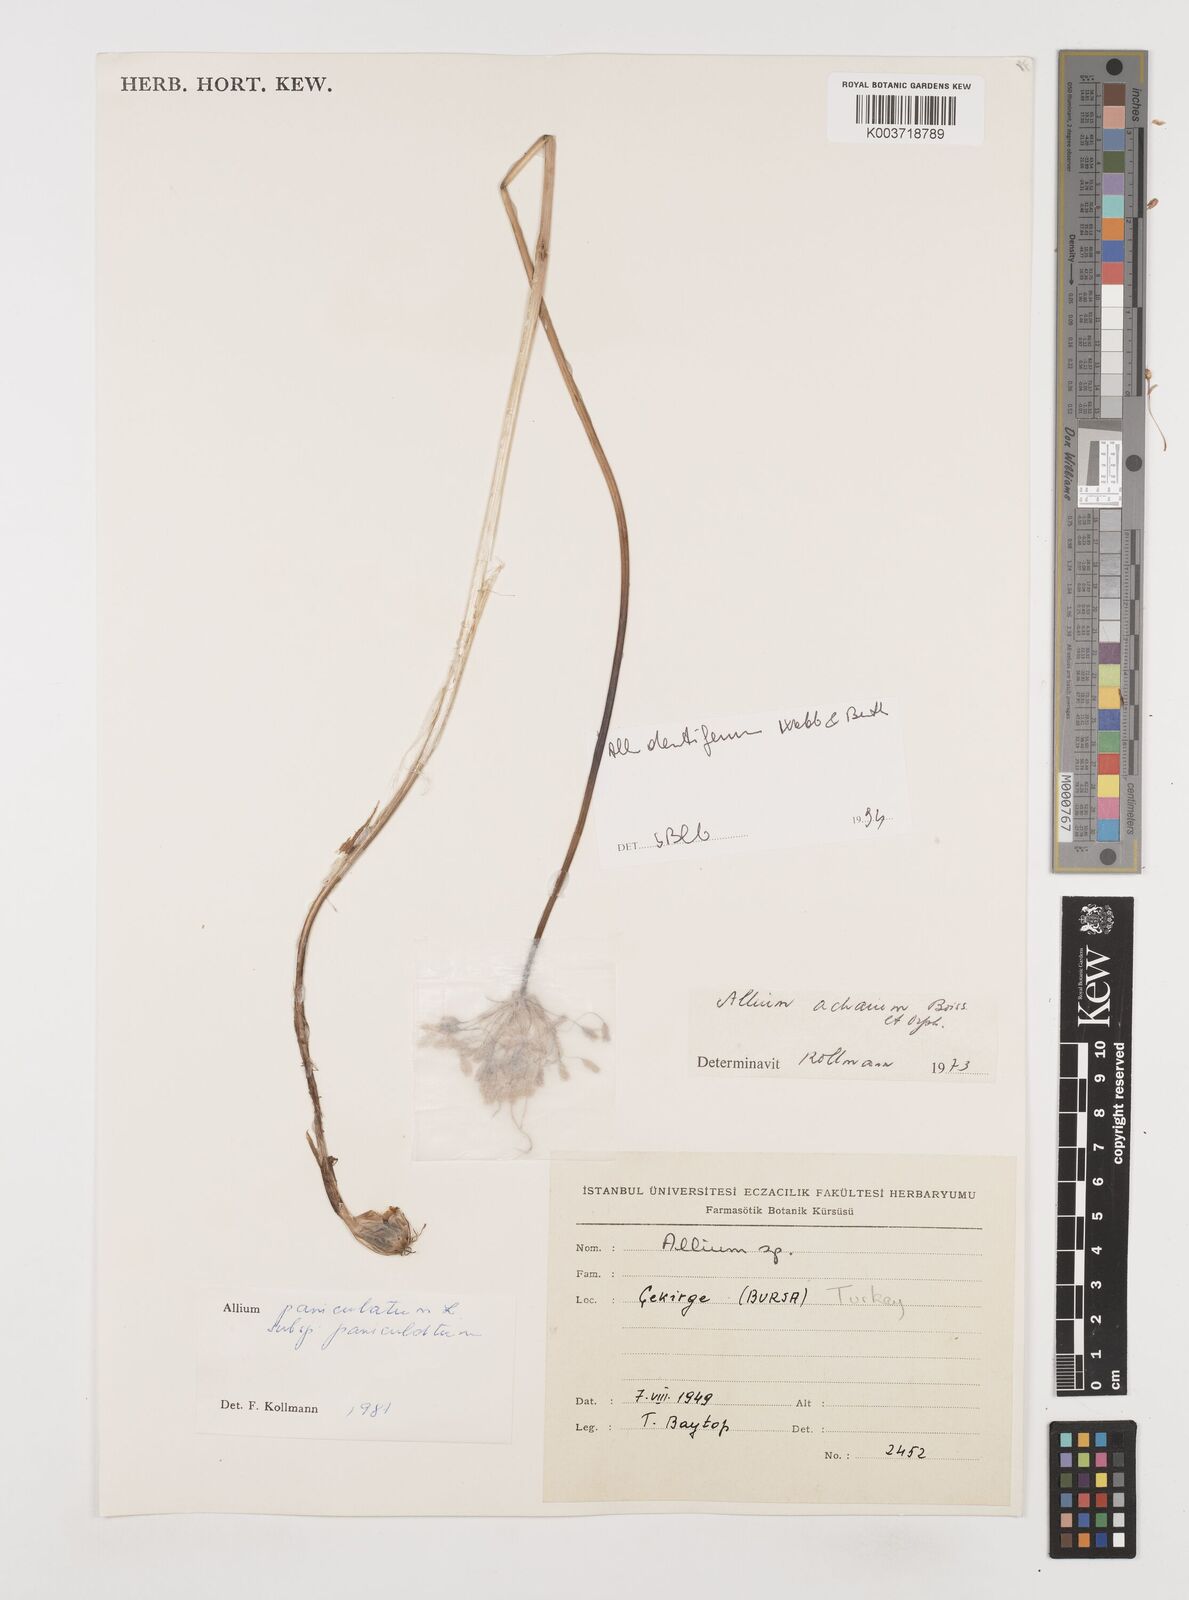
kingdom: Plantae
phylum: Tracheophyta
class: Liliopsida
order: Asparagales
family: Amaryllidaceae
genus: Allium
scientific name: Allium
